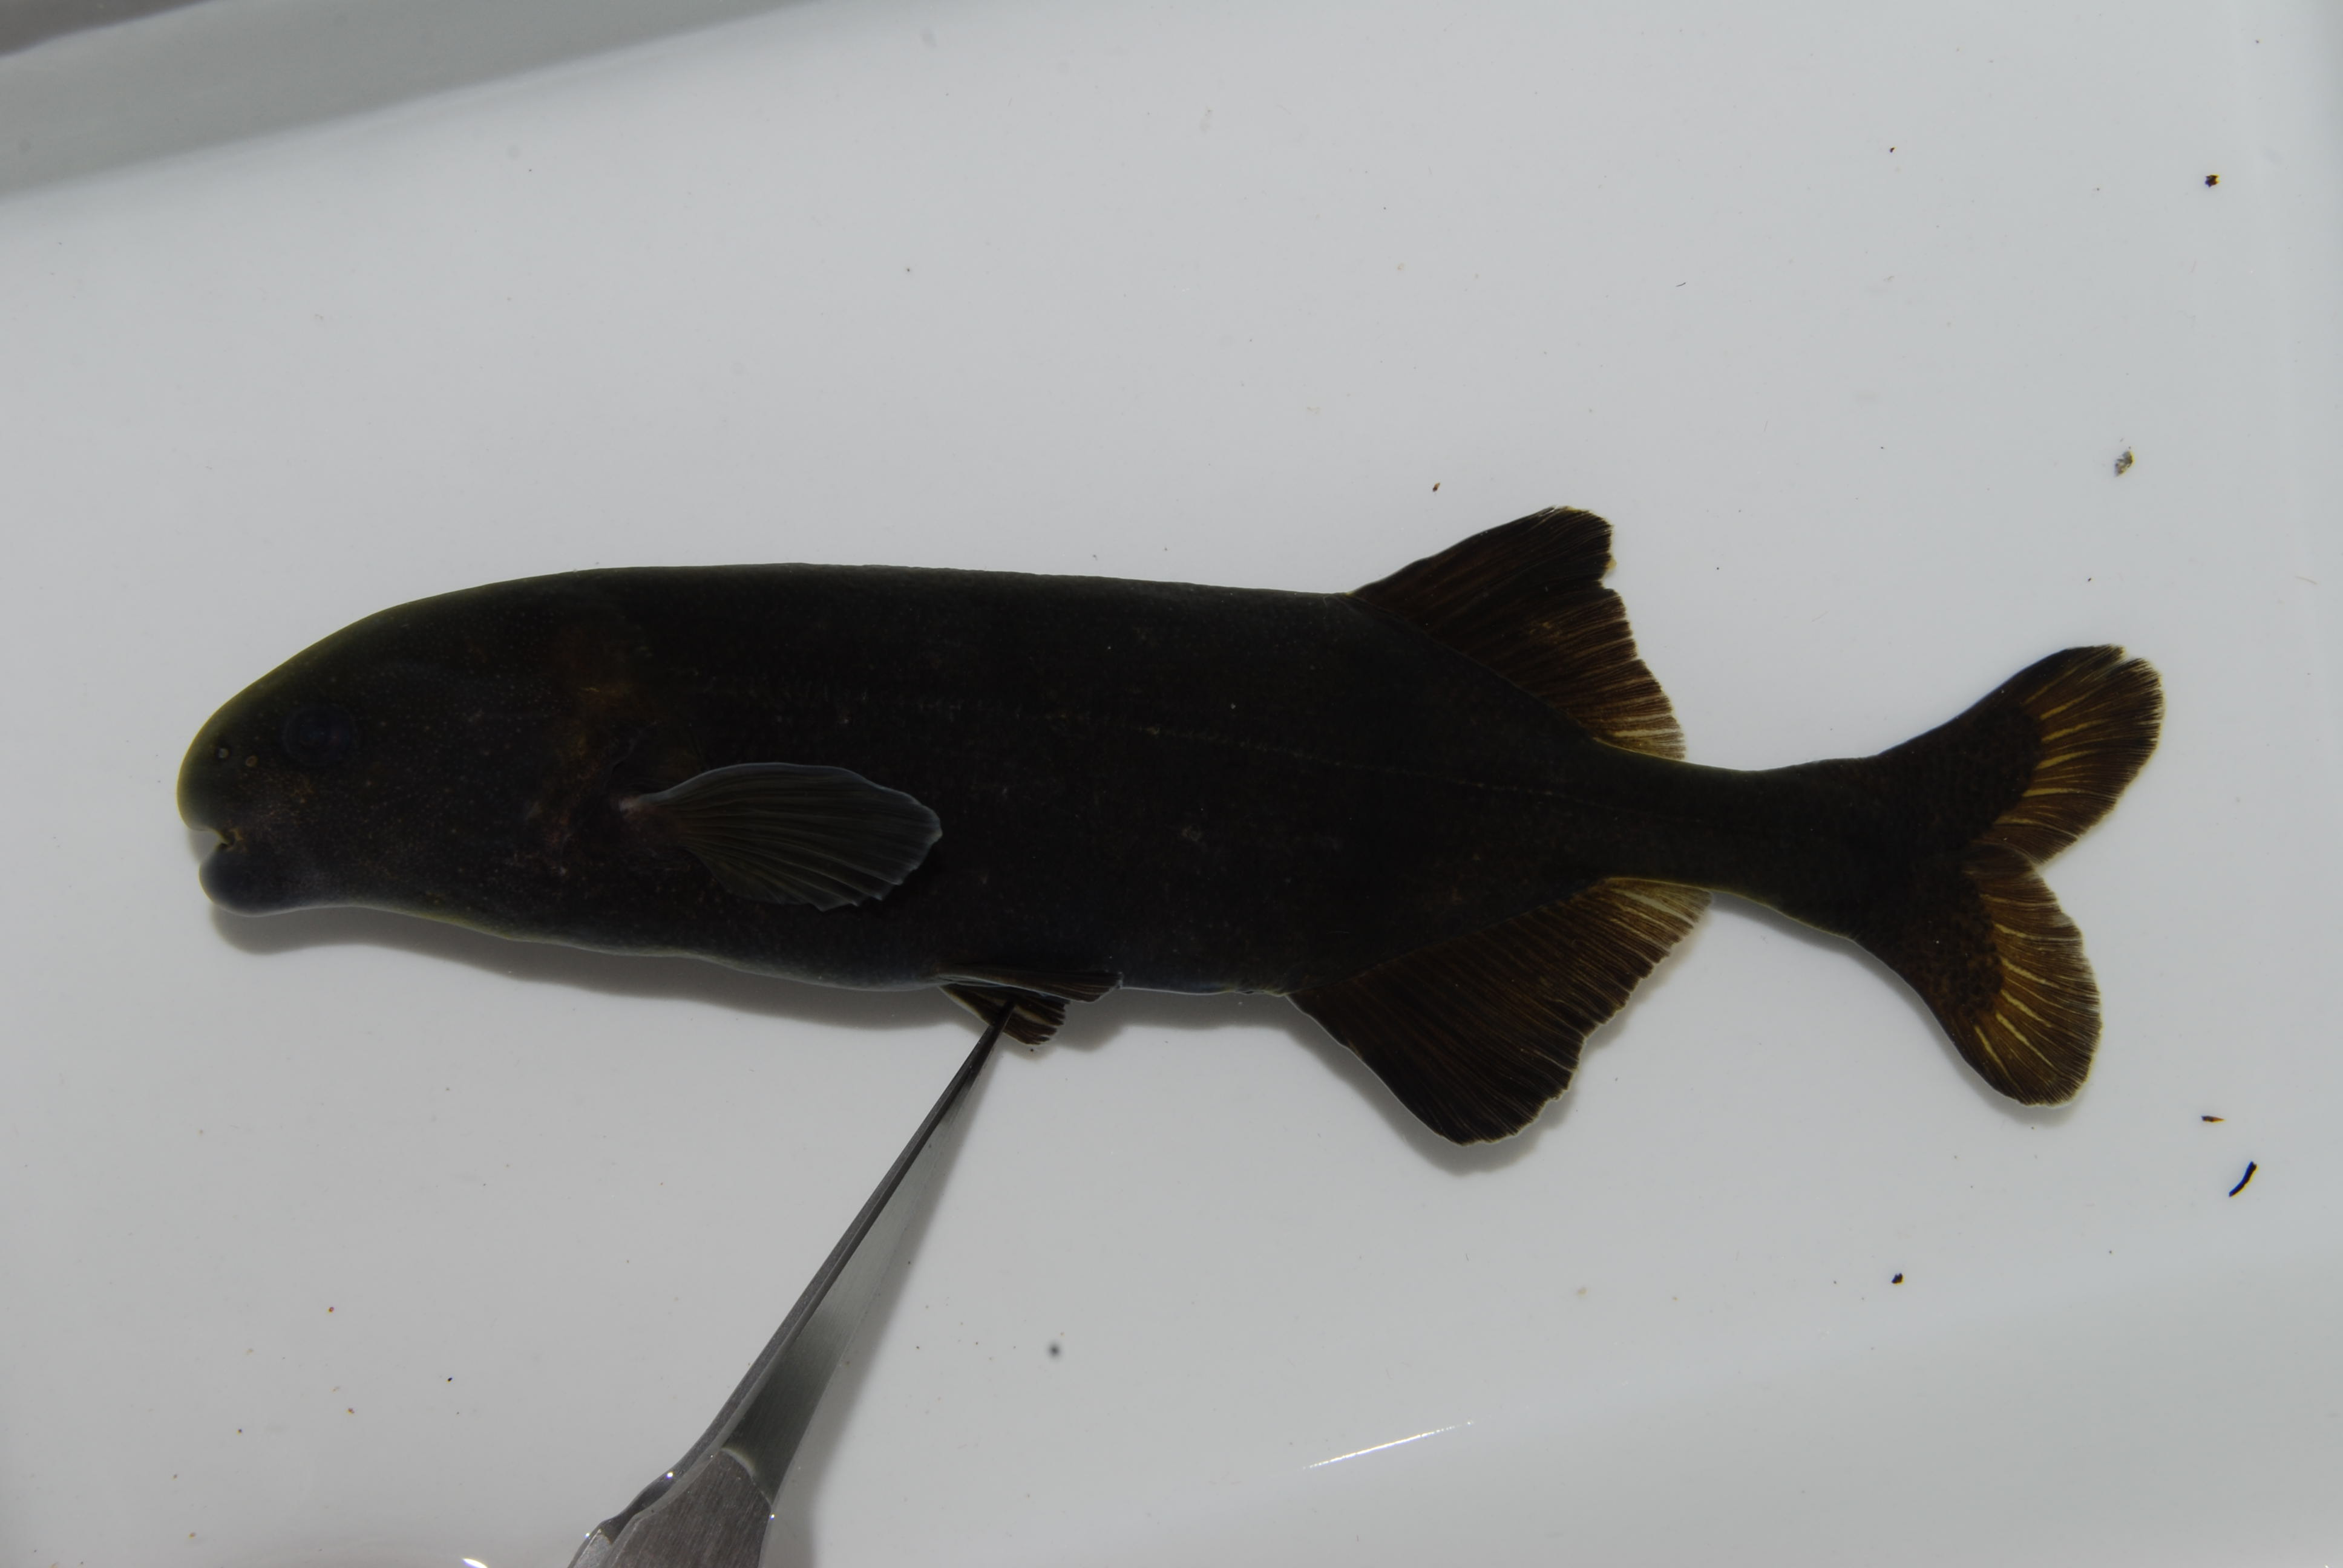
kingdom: Animalia
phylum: Chordata
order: Osteoglossiformes
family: Mormyridae
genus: Hippopotamyrus
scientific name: Hippopotamyrus
